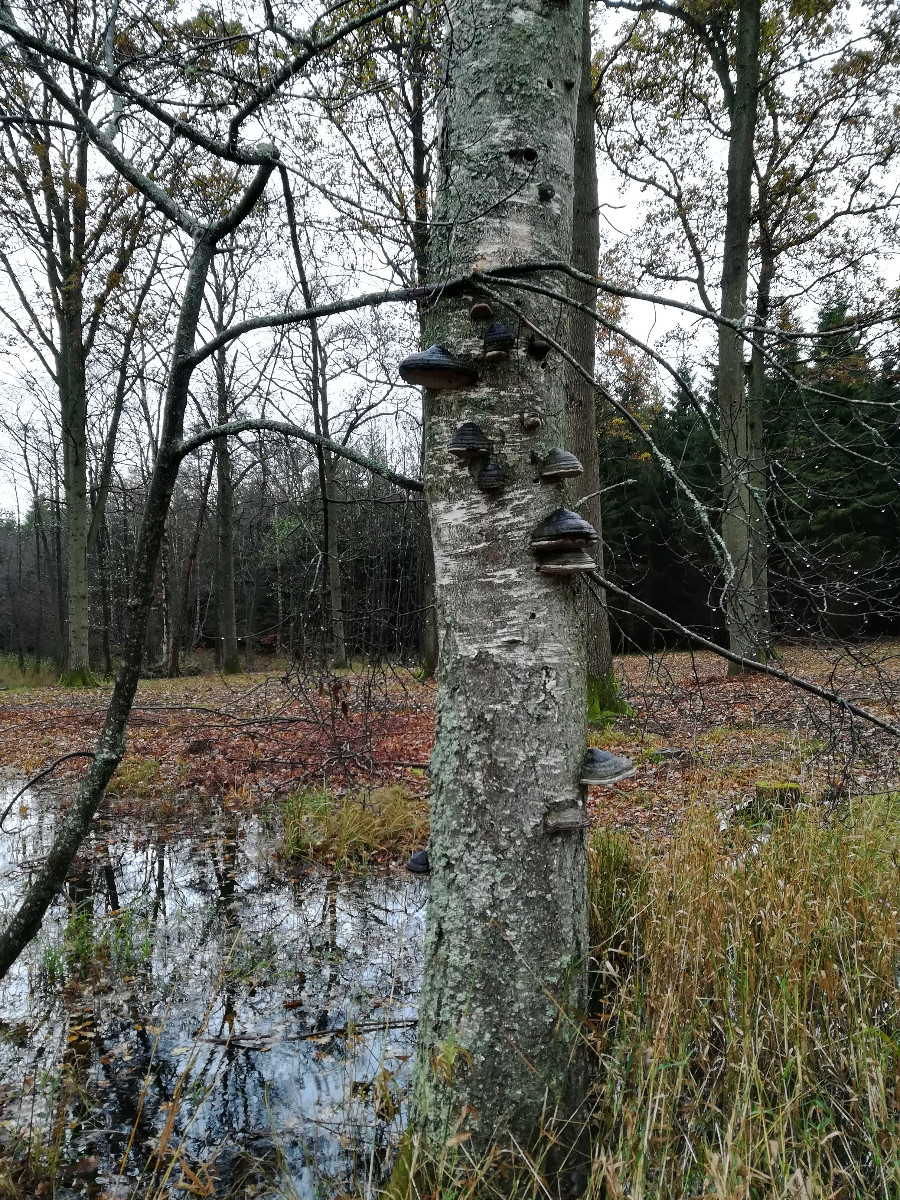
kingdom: Fungi
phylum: Basidiomycota
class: Agaricomycetes
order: Polyporales
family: Polyporaceae
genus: Fomes
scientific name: Fomes fomentarius
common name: tøndersvamp
